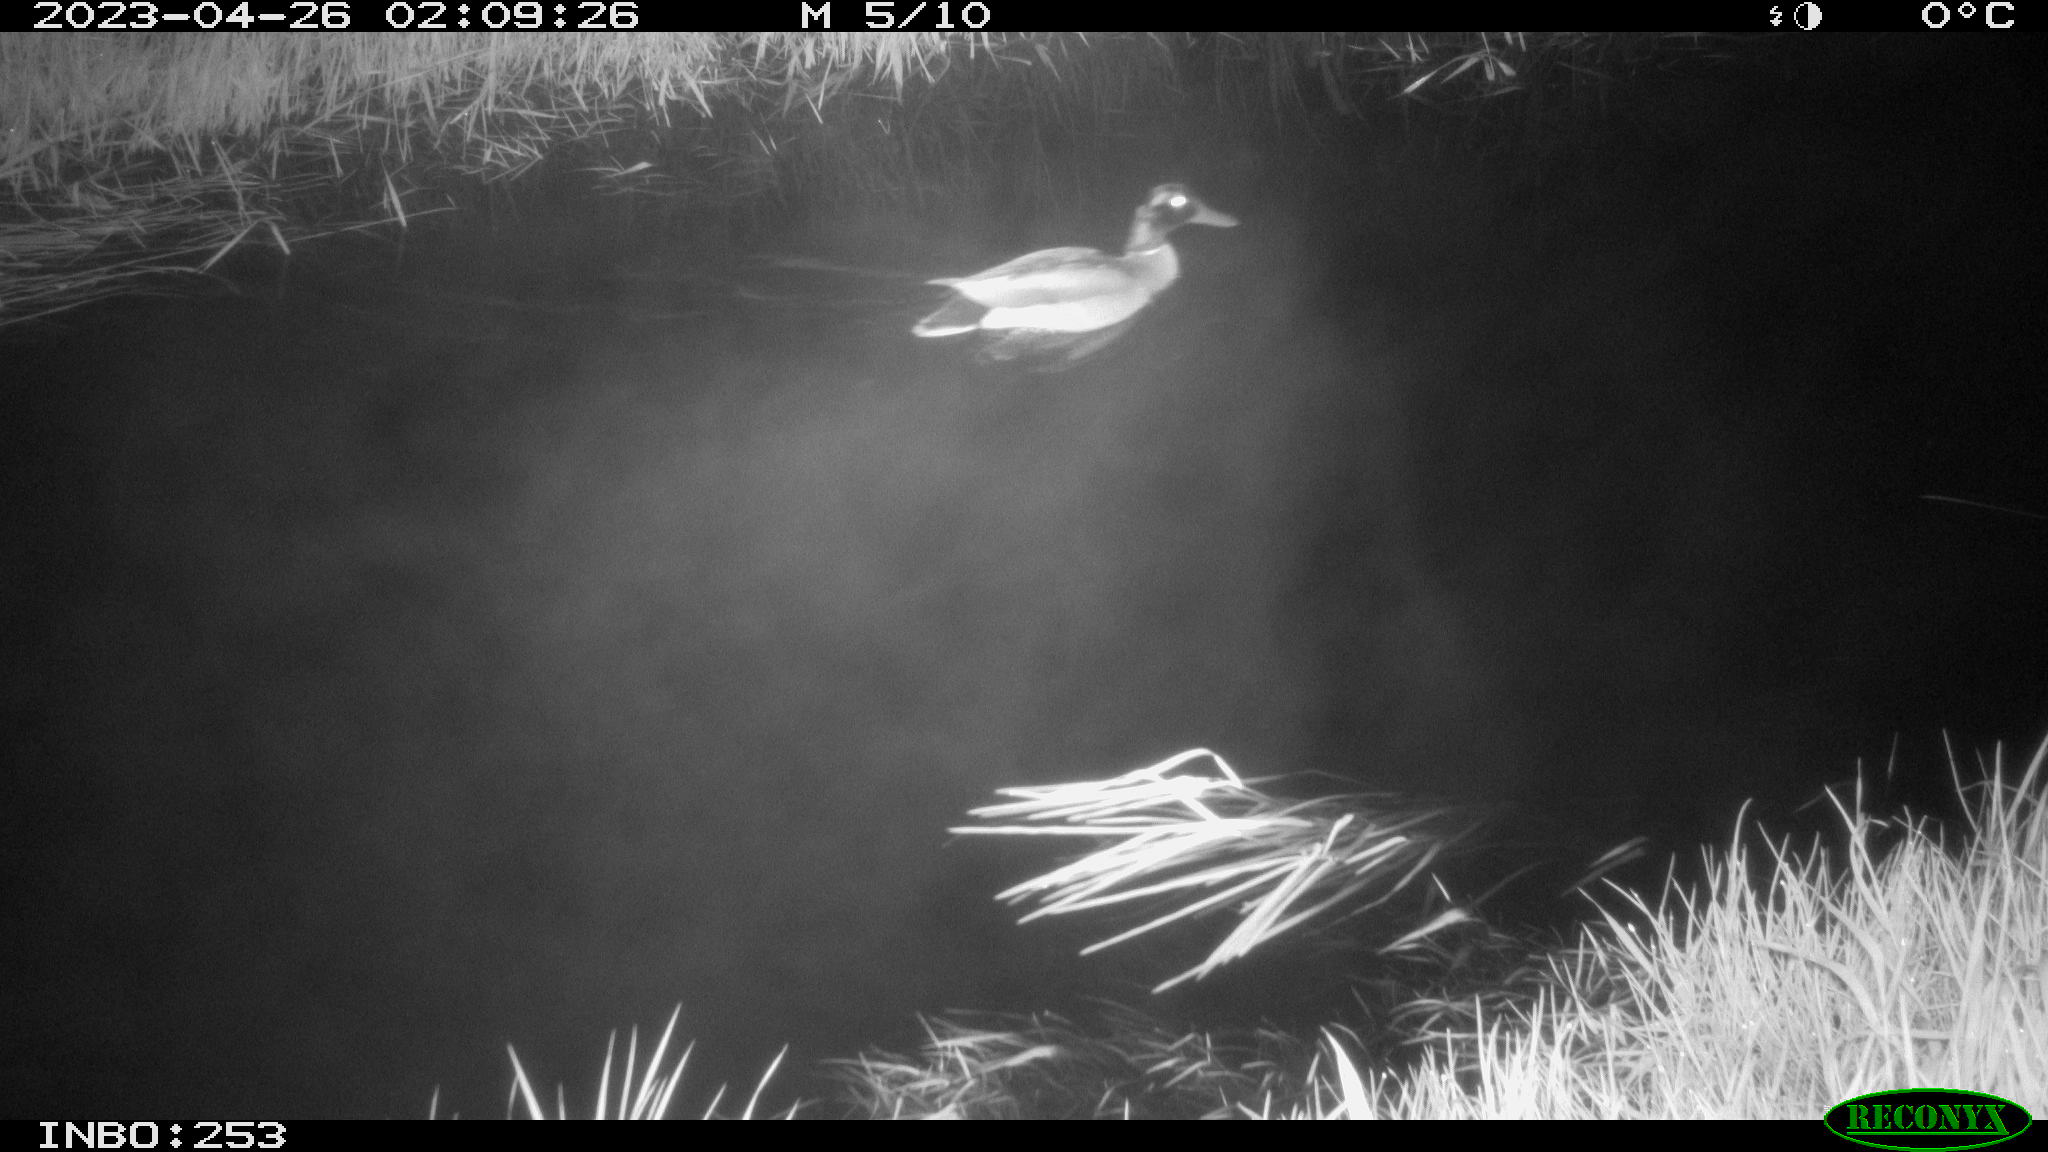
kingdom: Animalia
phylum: Chordata
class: Aves
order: Anseriformes
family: Anatidae
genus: Anas
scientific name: Anas
